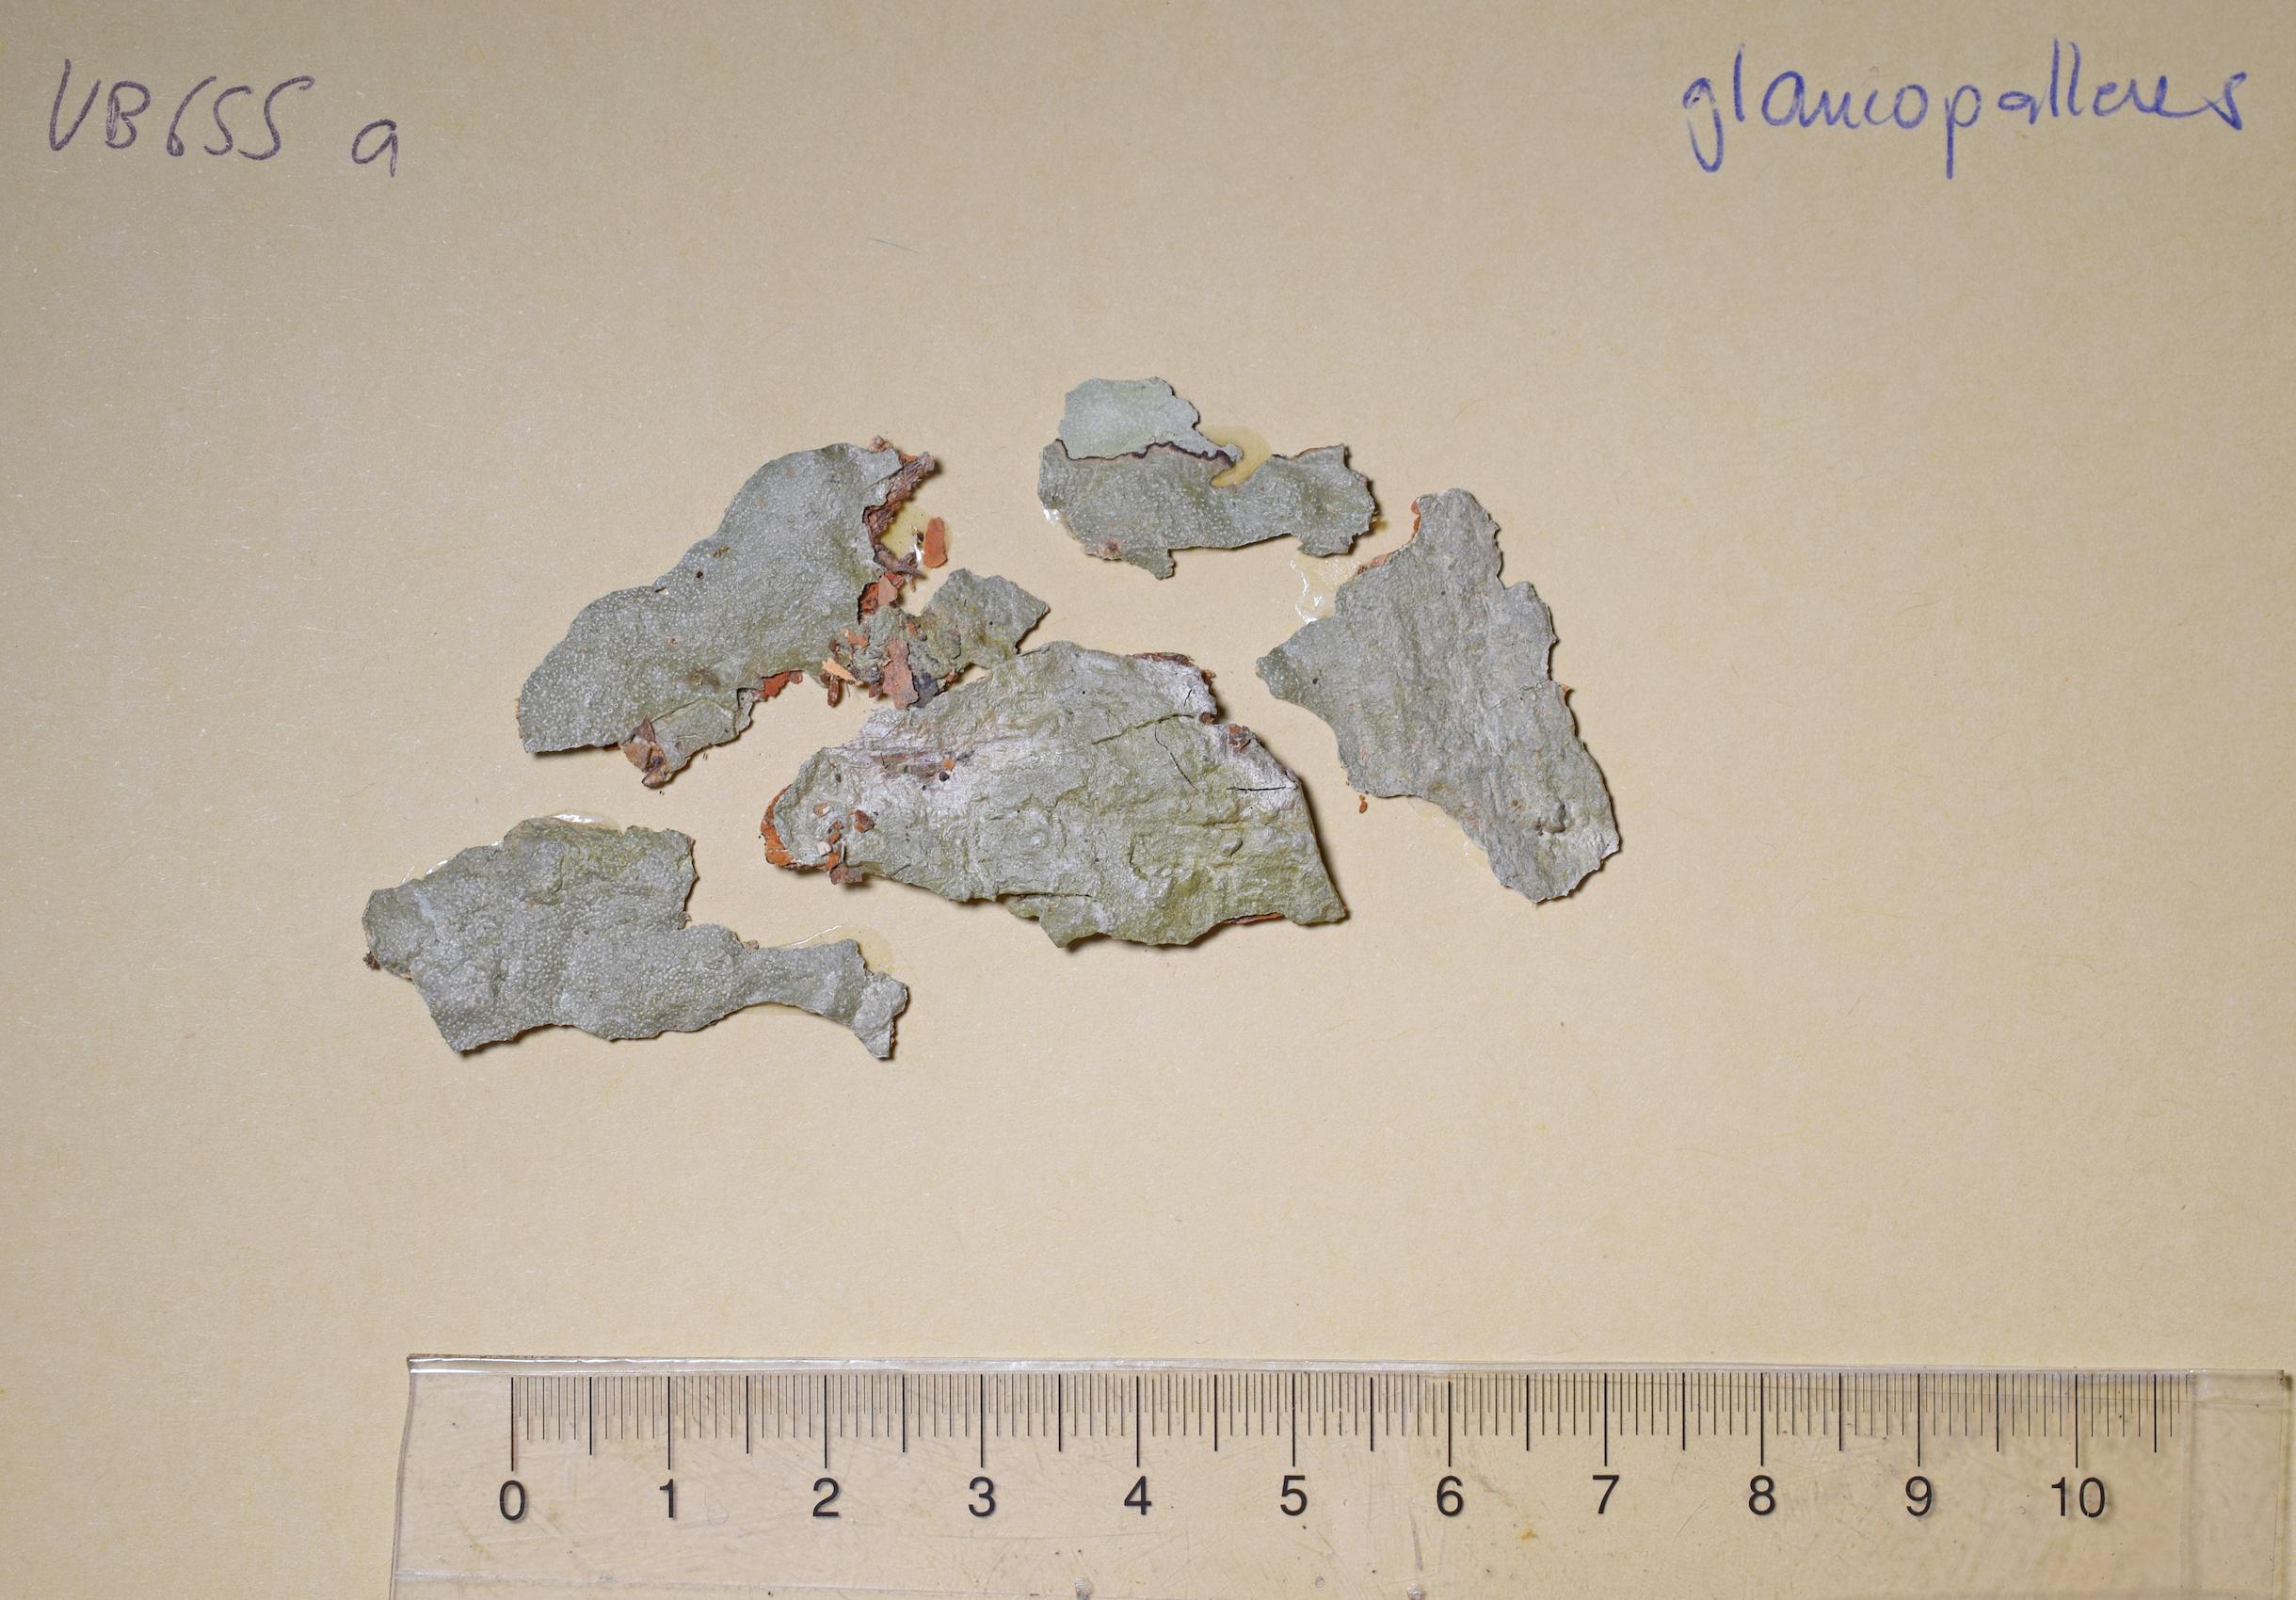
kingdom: Fungi
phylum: Ascomycota
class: Lecanoromycetes
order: Ostropales
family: Graphidaceae
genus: Wirthiotrema
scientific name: Wirthiotrema
